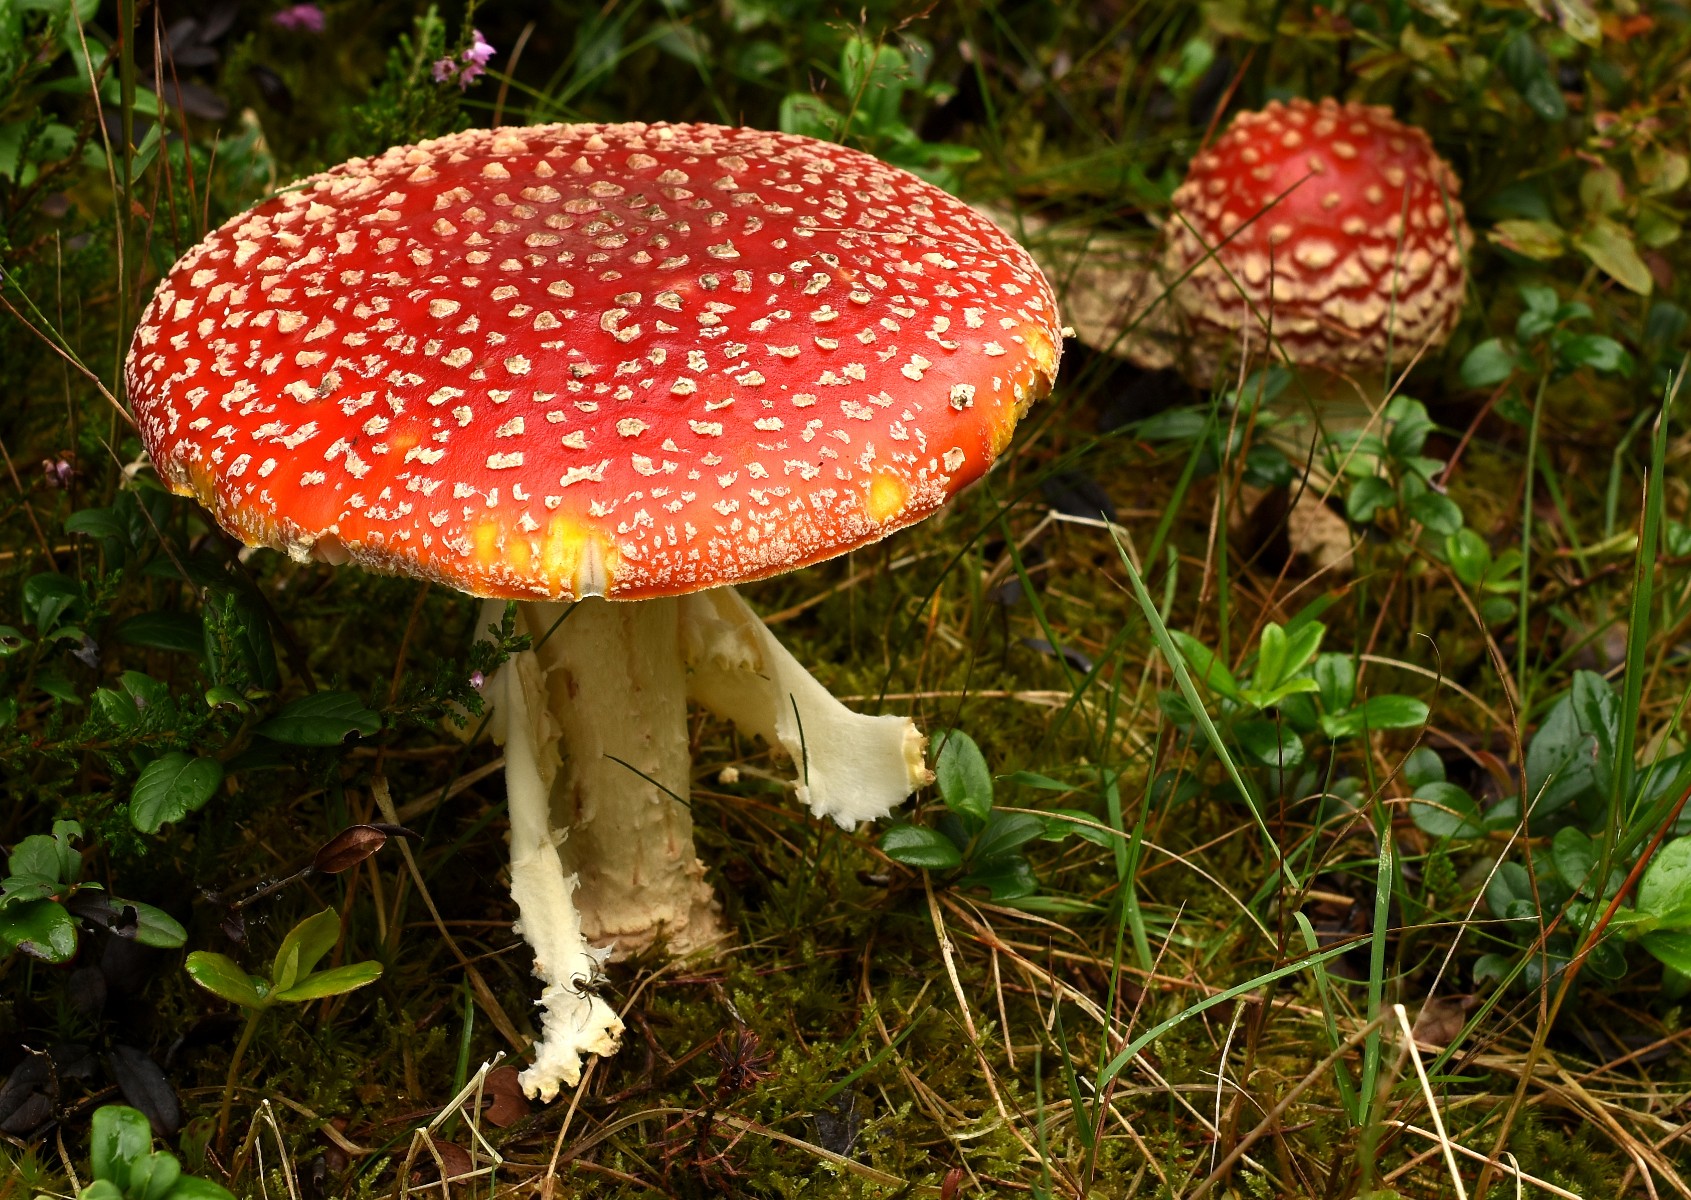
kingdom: Fungi
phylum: Basidiomycota
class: Agaricomycetes
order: Agaricales
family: Amanitaceae
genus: Amanita
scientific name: Amanita muscaria
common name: rød fluesvamp
